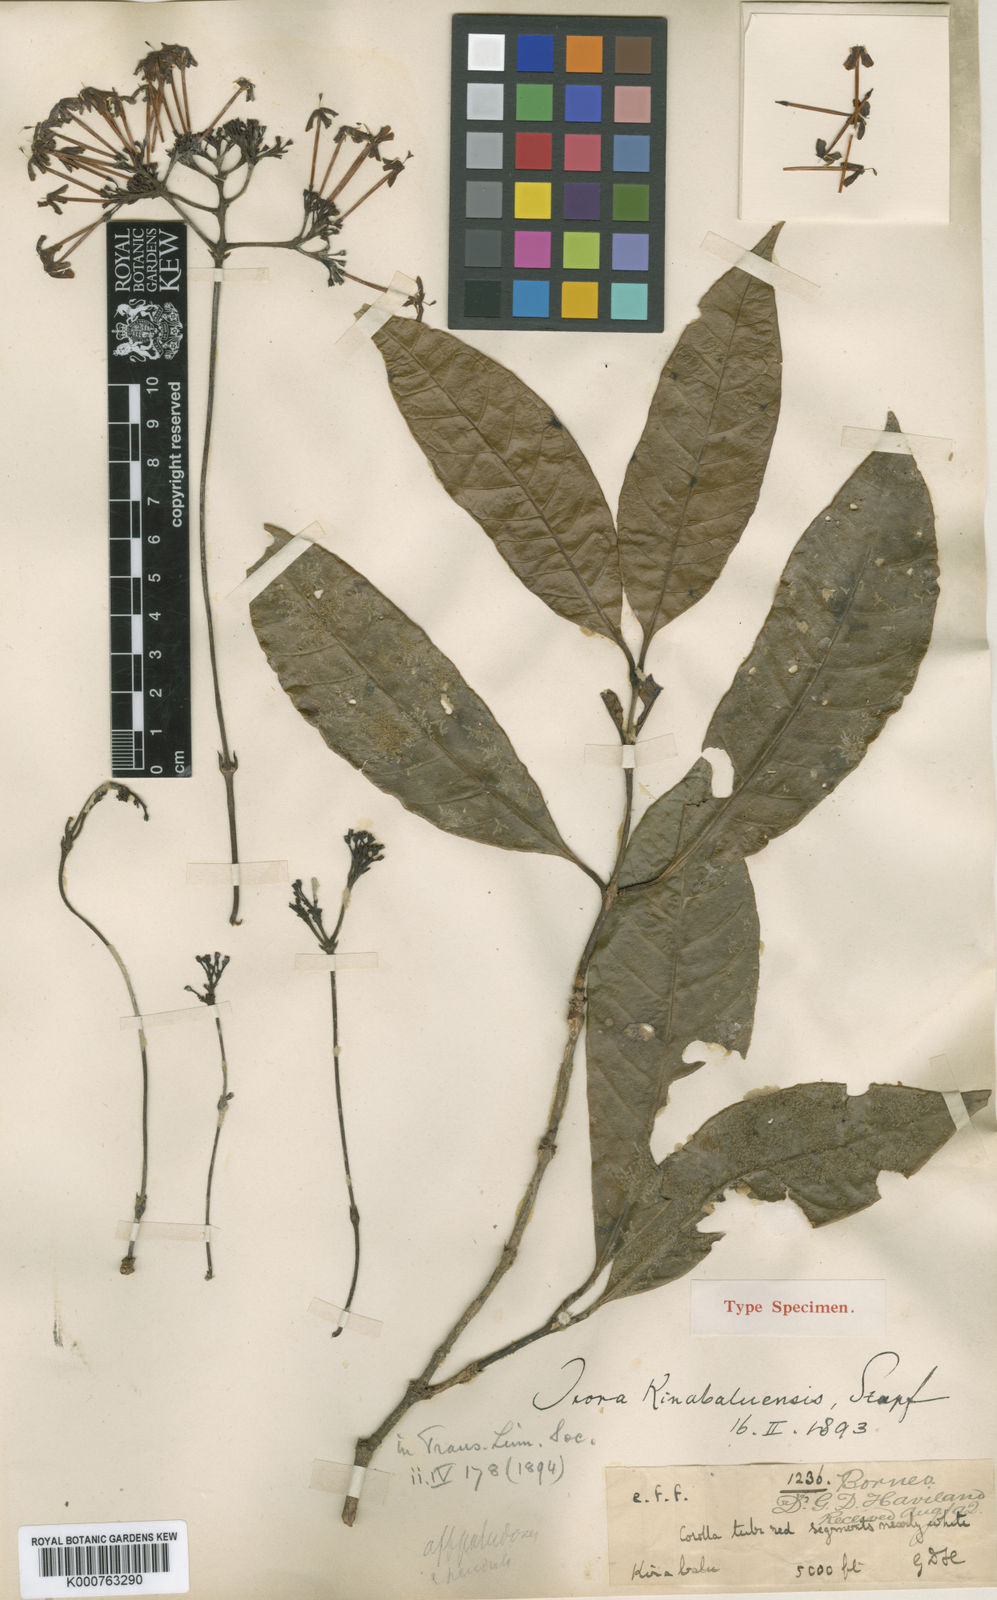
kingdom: Plantae
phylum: Tracheophyta
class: Magnoliopsida
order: Gentianales
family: Rubiaceae
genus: Ixora
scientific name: Ixora kinabaluensis
